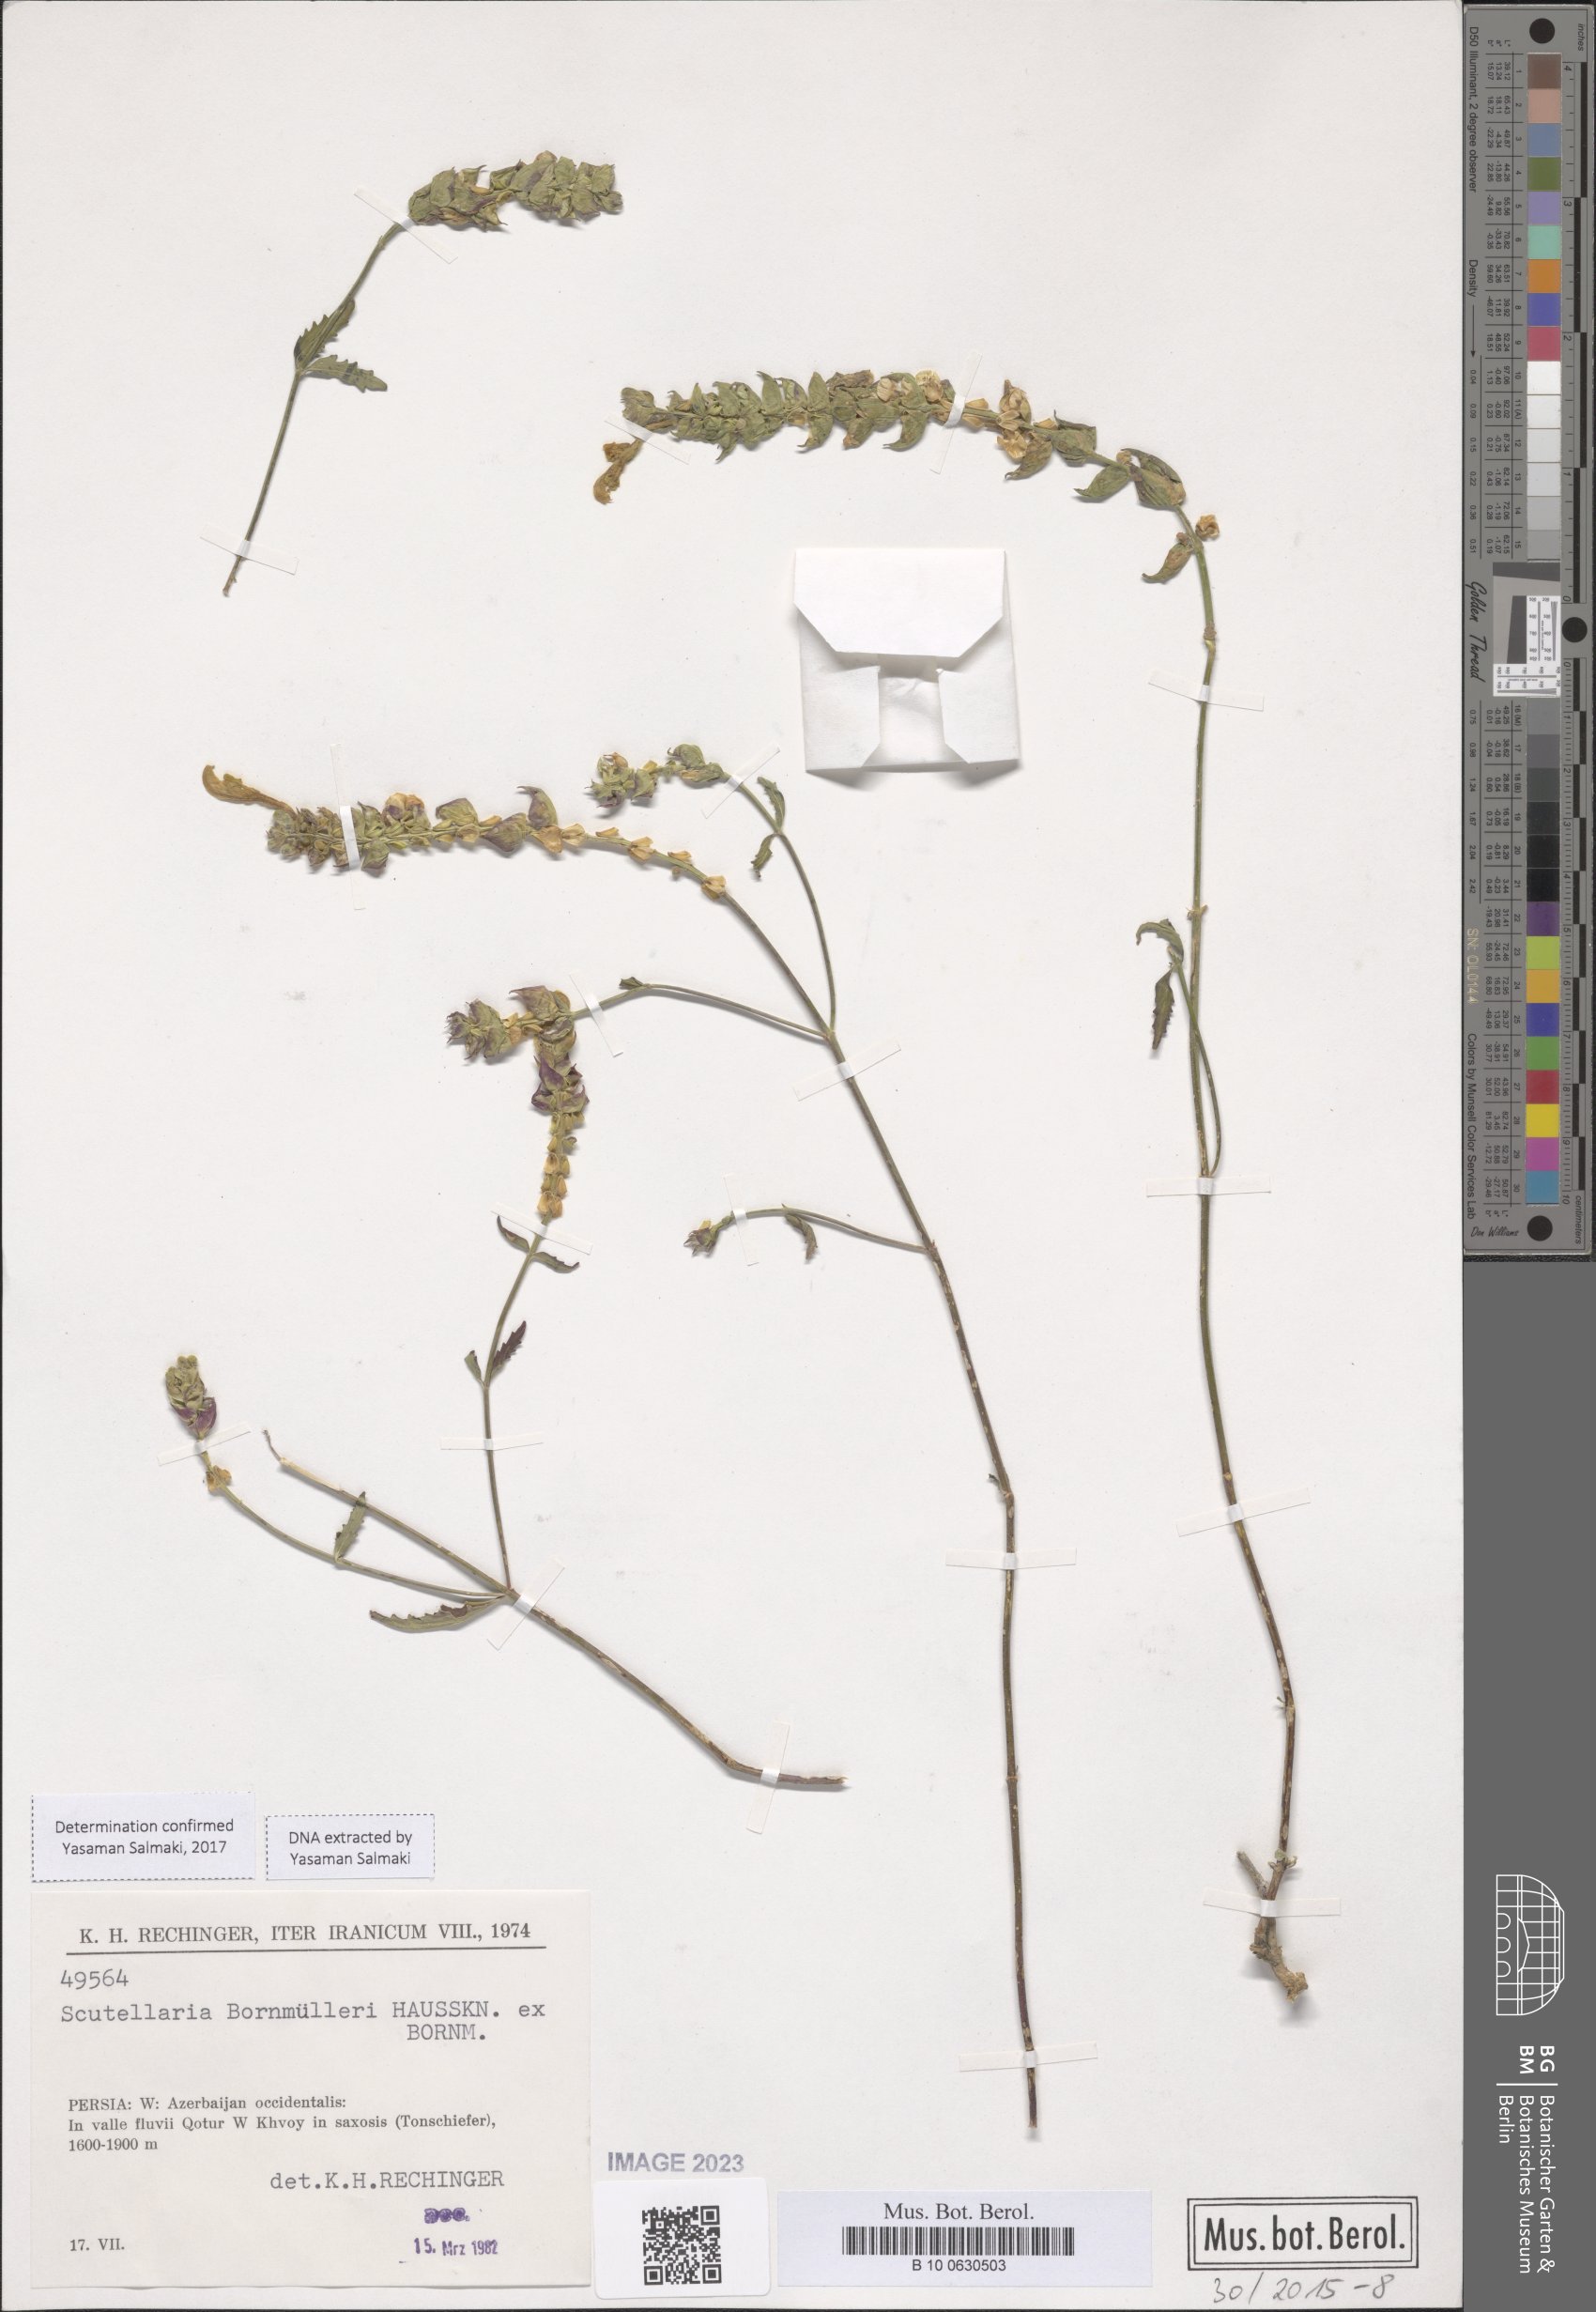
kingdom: Plantae
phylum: Tracheophyta
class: Magnoliopsida
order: Lamiales
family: Lamiaceae
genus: Scutellaria
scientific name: Scutellaria bornmuelleri
